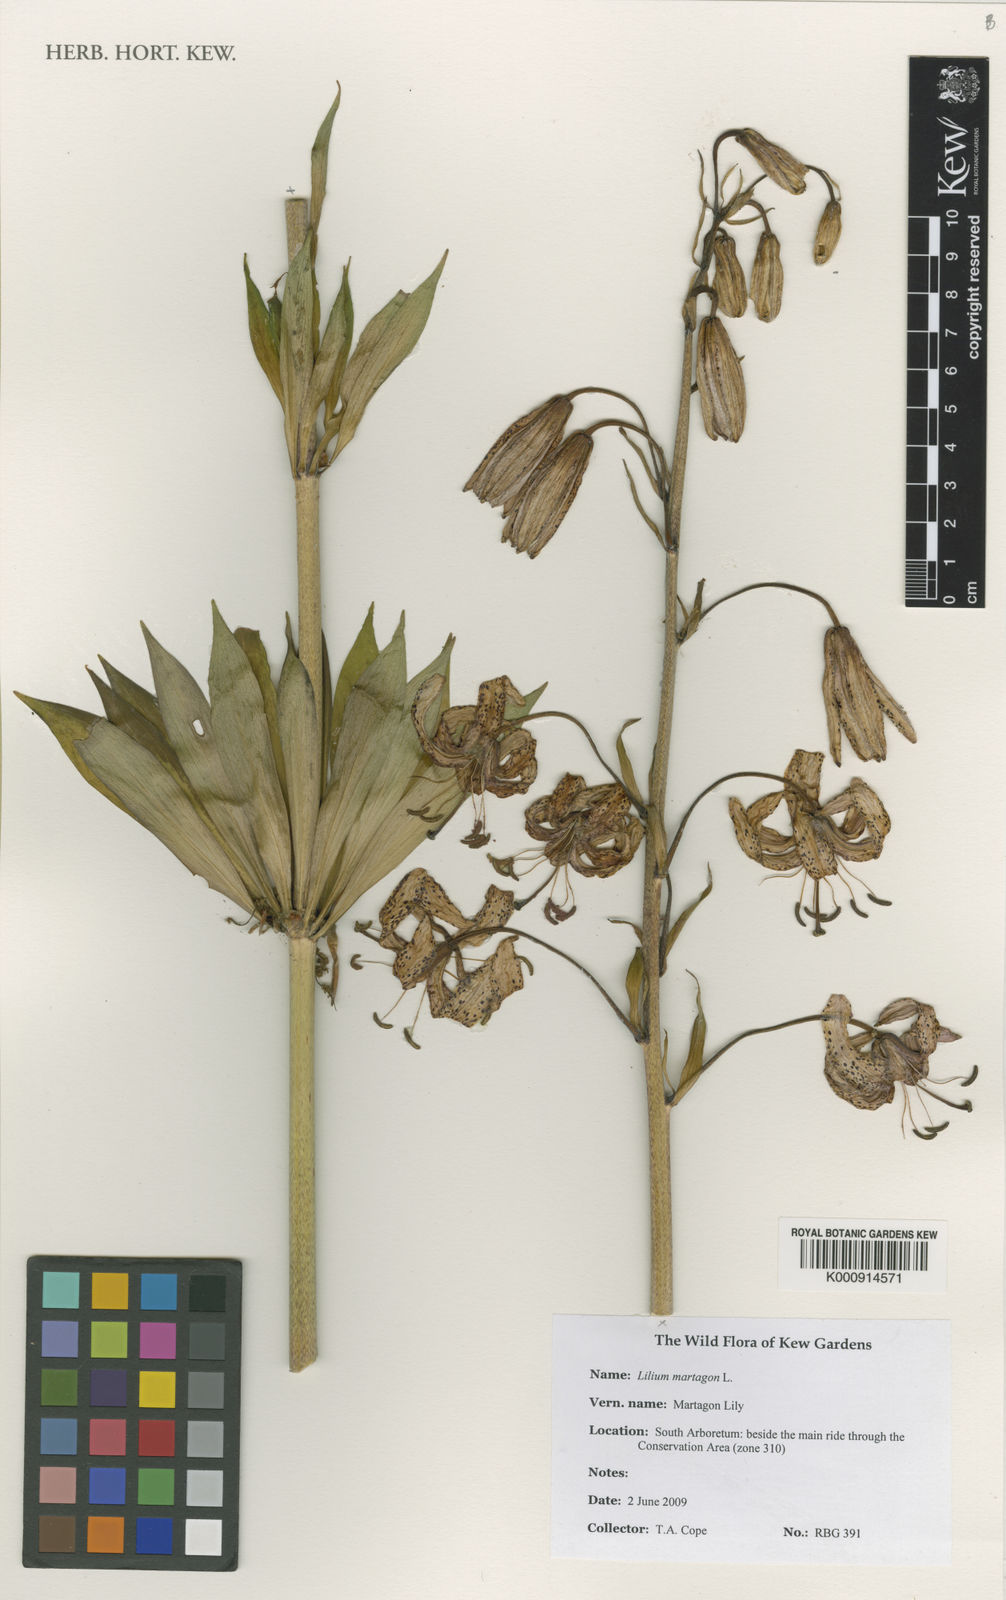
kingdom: Plantae
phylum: Tracheophyta
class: Liliopsida
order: Liliales
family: Liliaceae
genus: Lilium
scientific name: Lilium martagon
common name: Martagon lily
